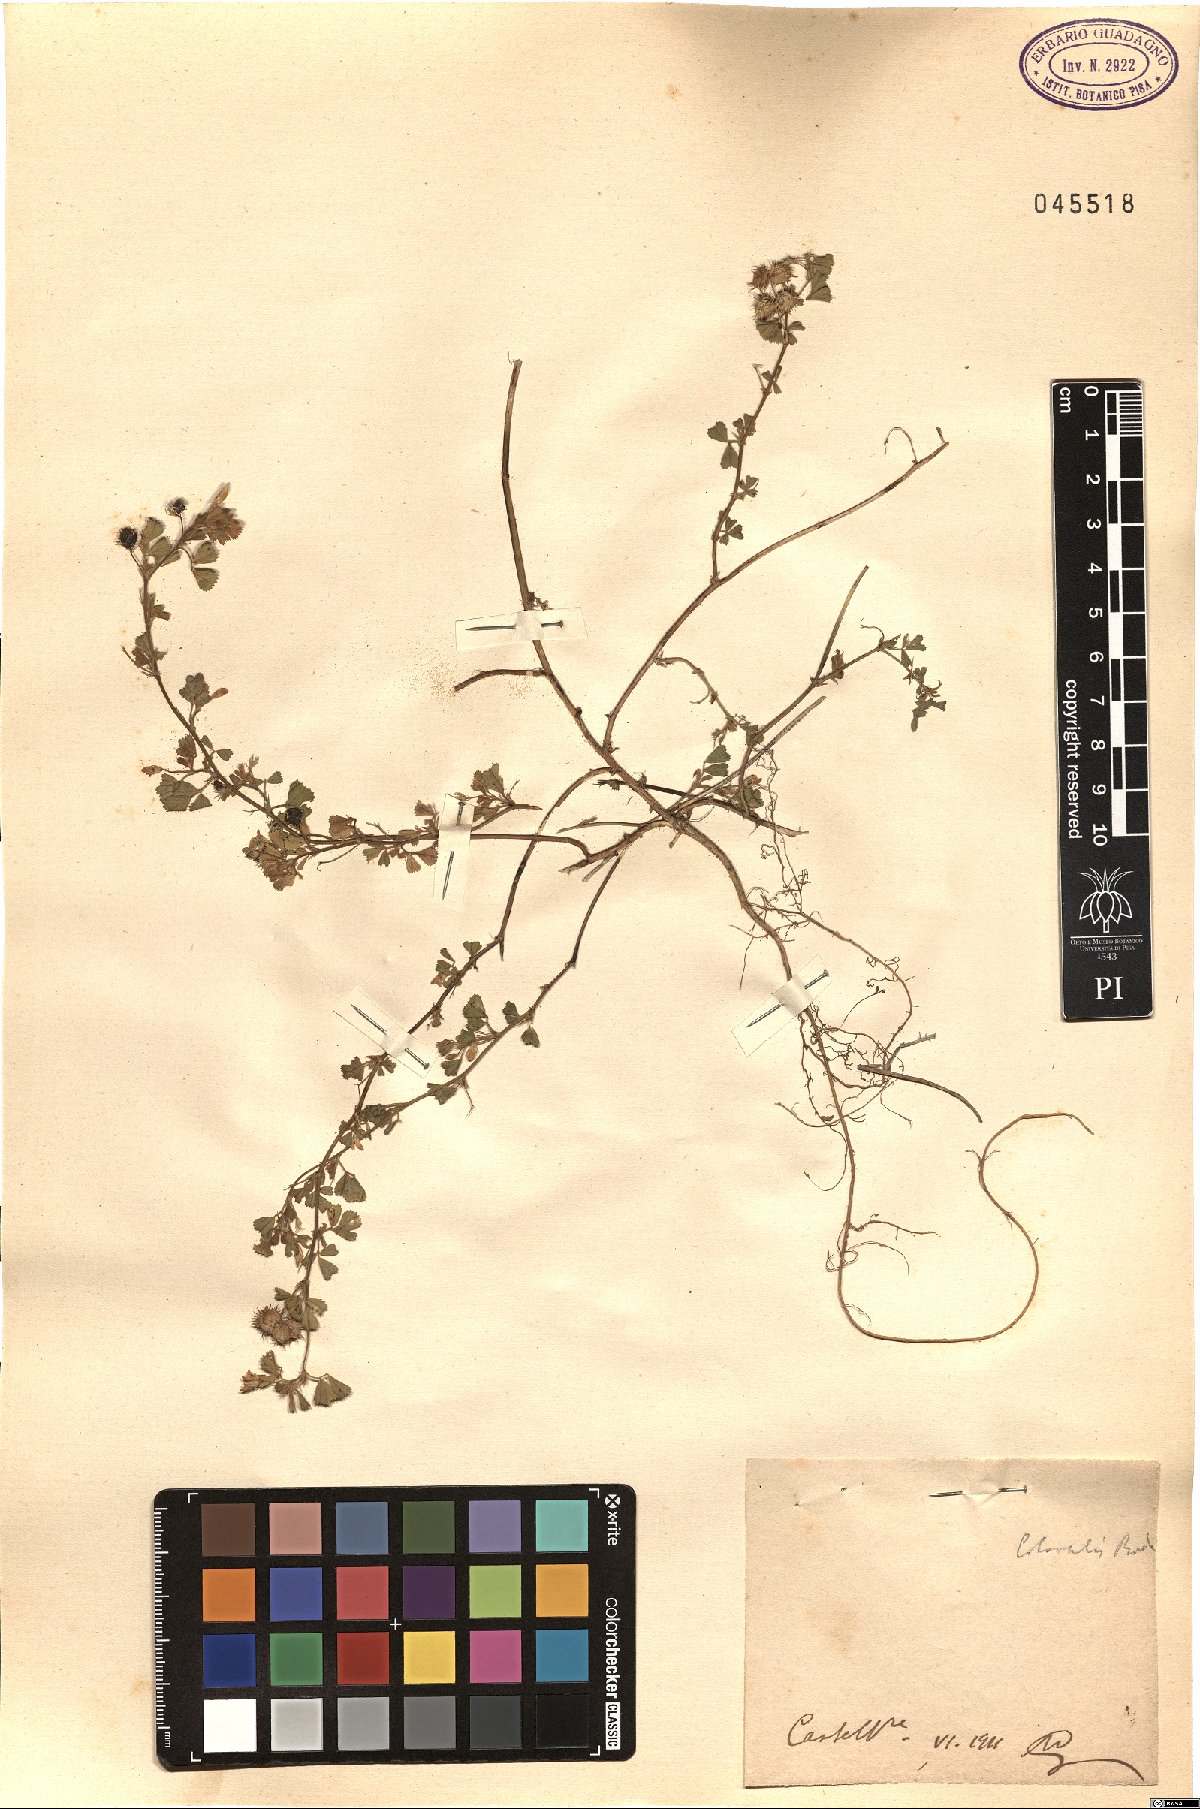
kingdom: Plantae
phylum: Tracheophyta
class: Magnoliopsida
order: Fabales
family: Fabaceae
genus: Medicago
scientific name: Medicago littoralis
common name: Shore medick
